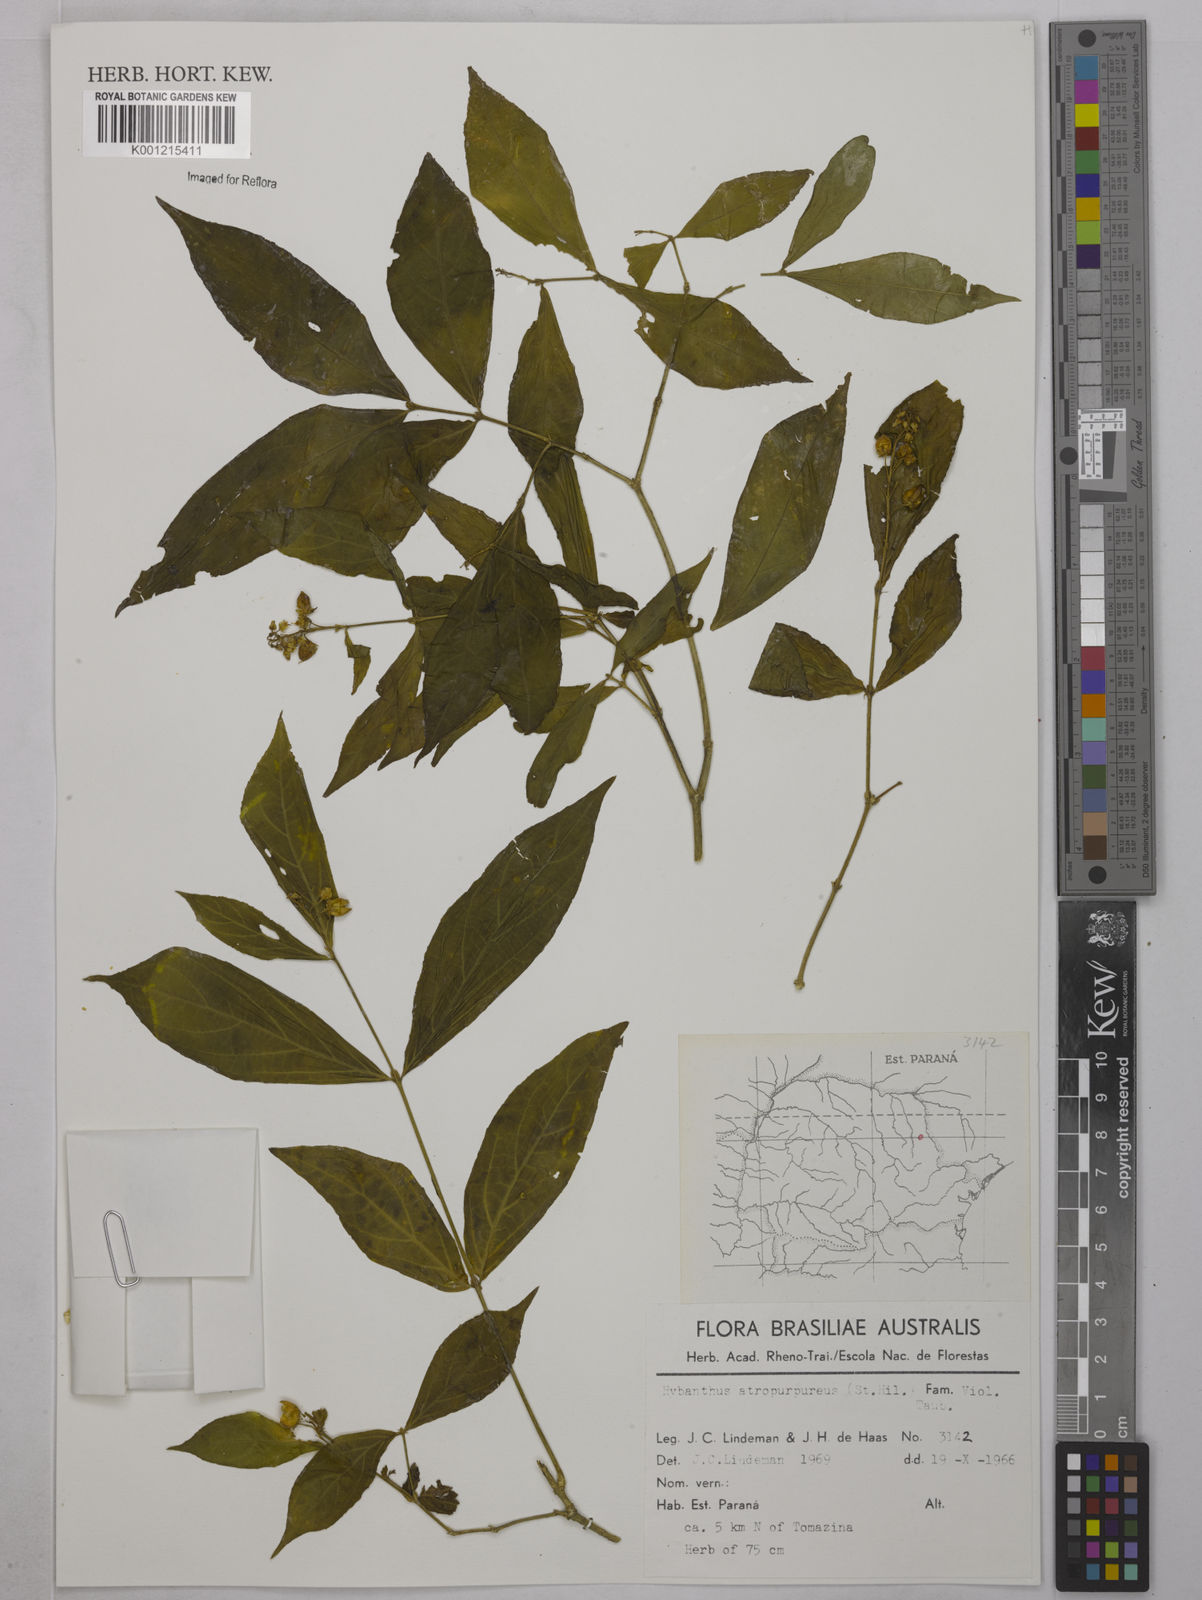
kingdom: Plantae
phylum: Tracheophyta
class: Magnoliopsida
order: Malpighiales
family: Violaceae
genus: Pombalia
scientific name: Pombalia atropurpurea
